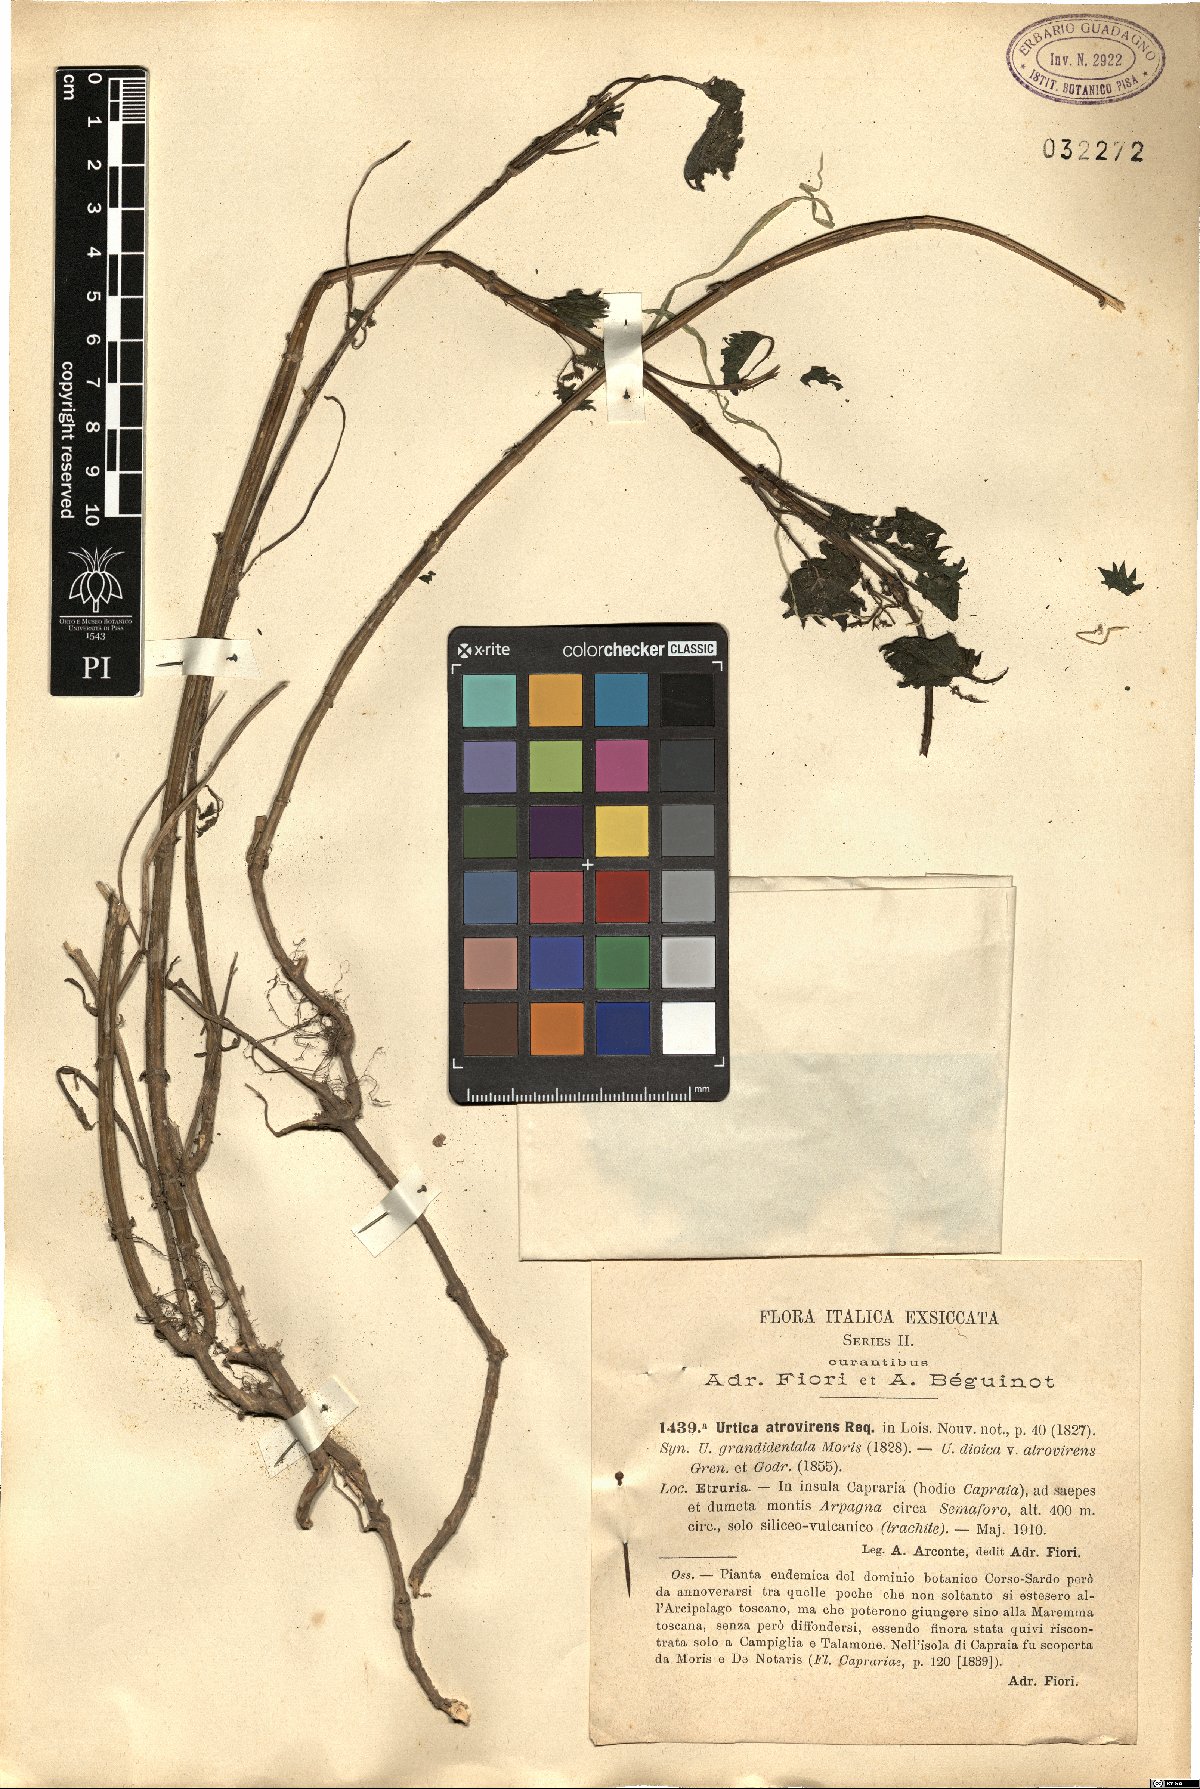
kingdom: Plantae
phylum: Tracheophyta
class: Magnoliopsida
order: Rosales
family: Urticaceae
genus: Urtica
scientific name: Urtica atrovirens
